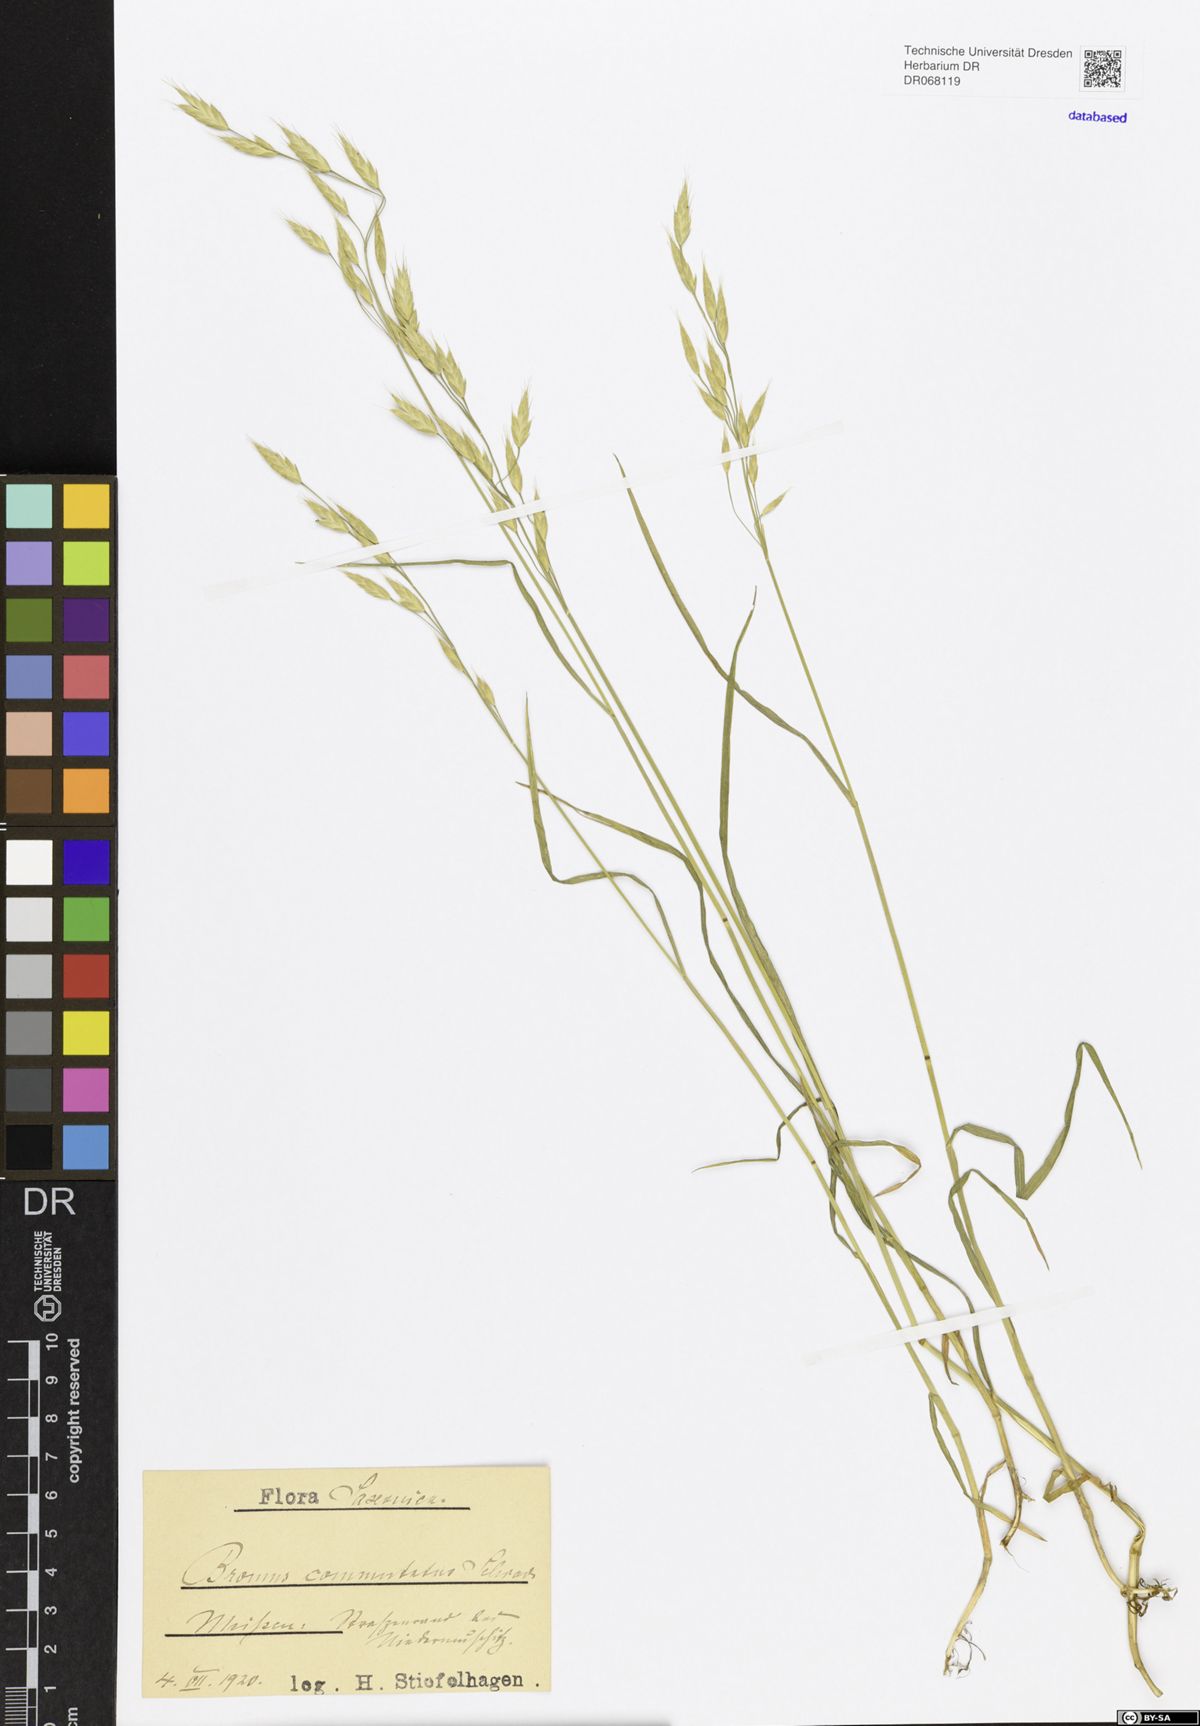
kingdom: Plantae
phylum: Tracheophyta
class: Liliopsida
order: Poales
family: Poaceae
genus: Bromus
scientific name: Bromus commutatus
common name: Meadow brome
